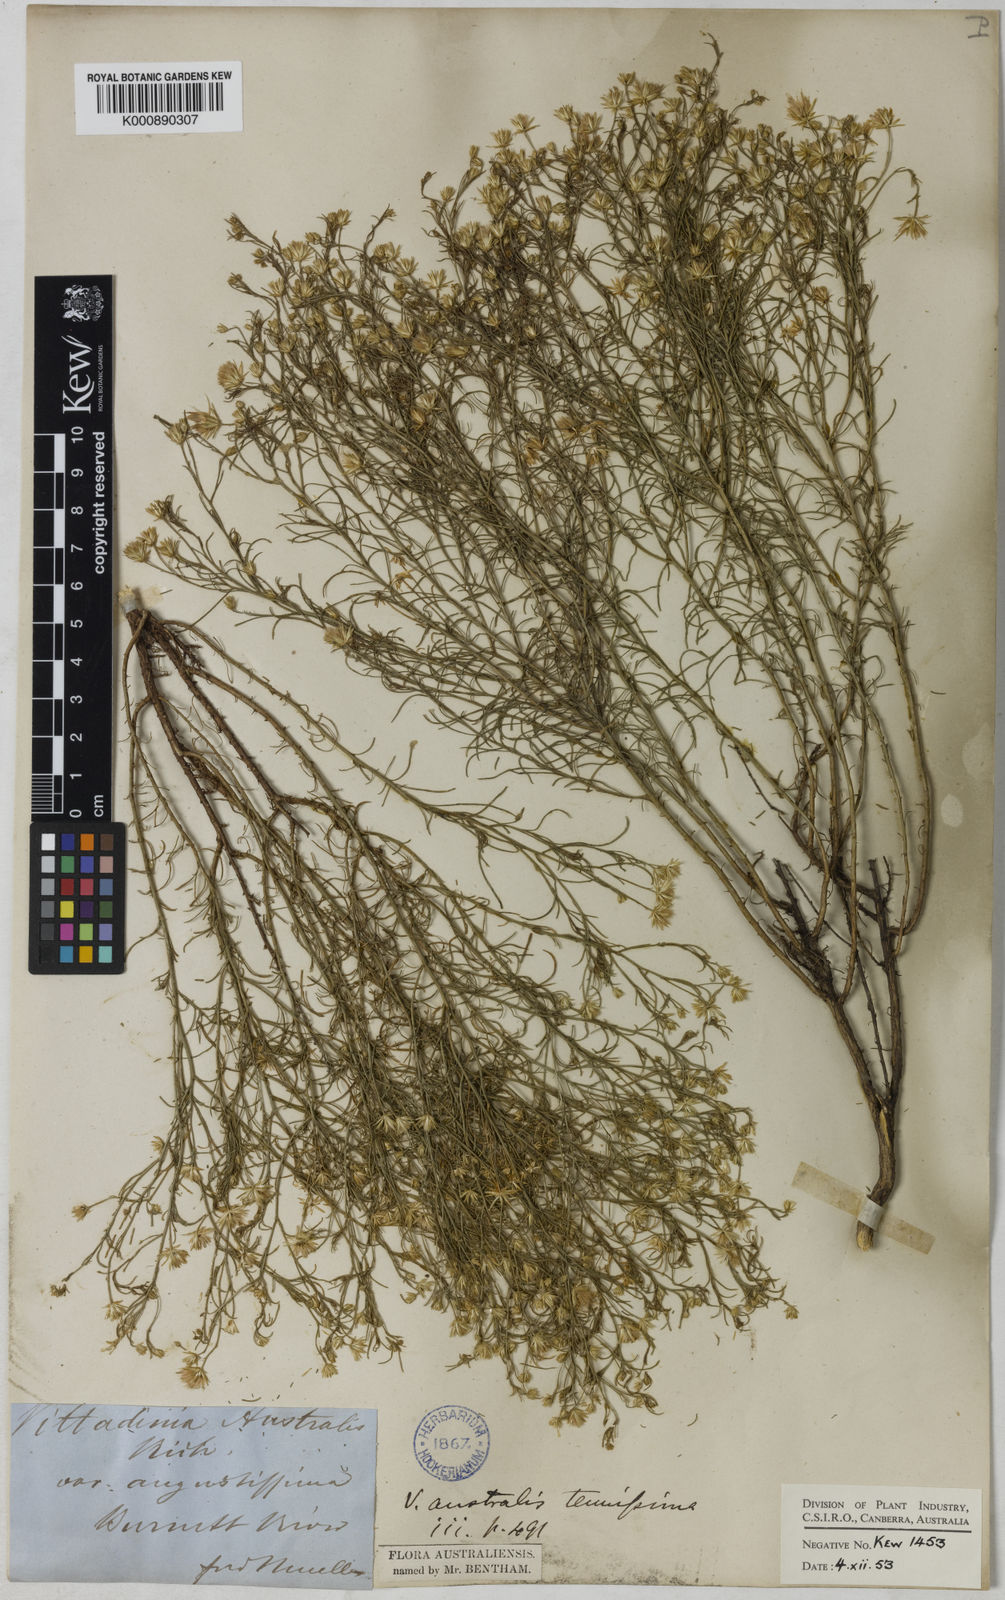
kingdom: Plantae
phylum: Tracheophyta
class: Magnoliopsida
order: Asterales
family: Asteraceae
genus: Vittadinia
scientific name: Vittadinia tenuissima
